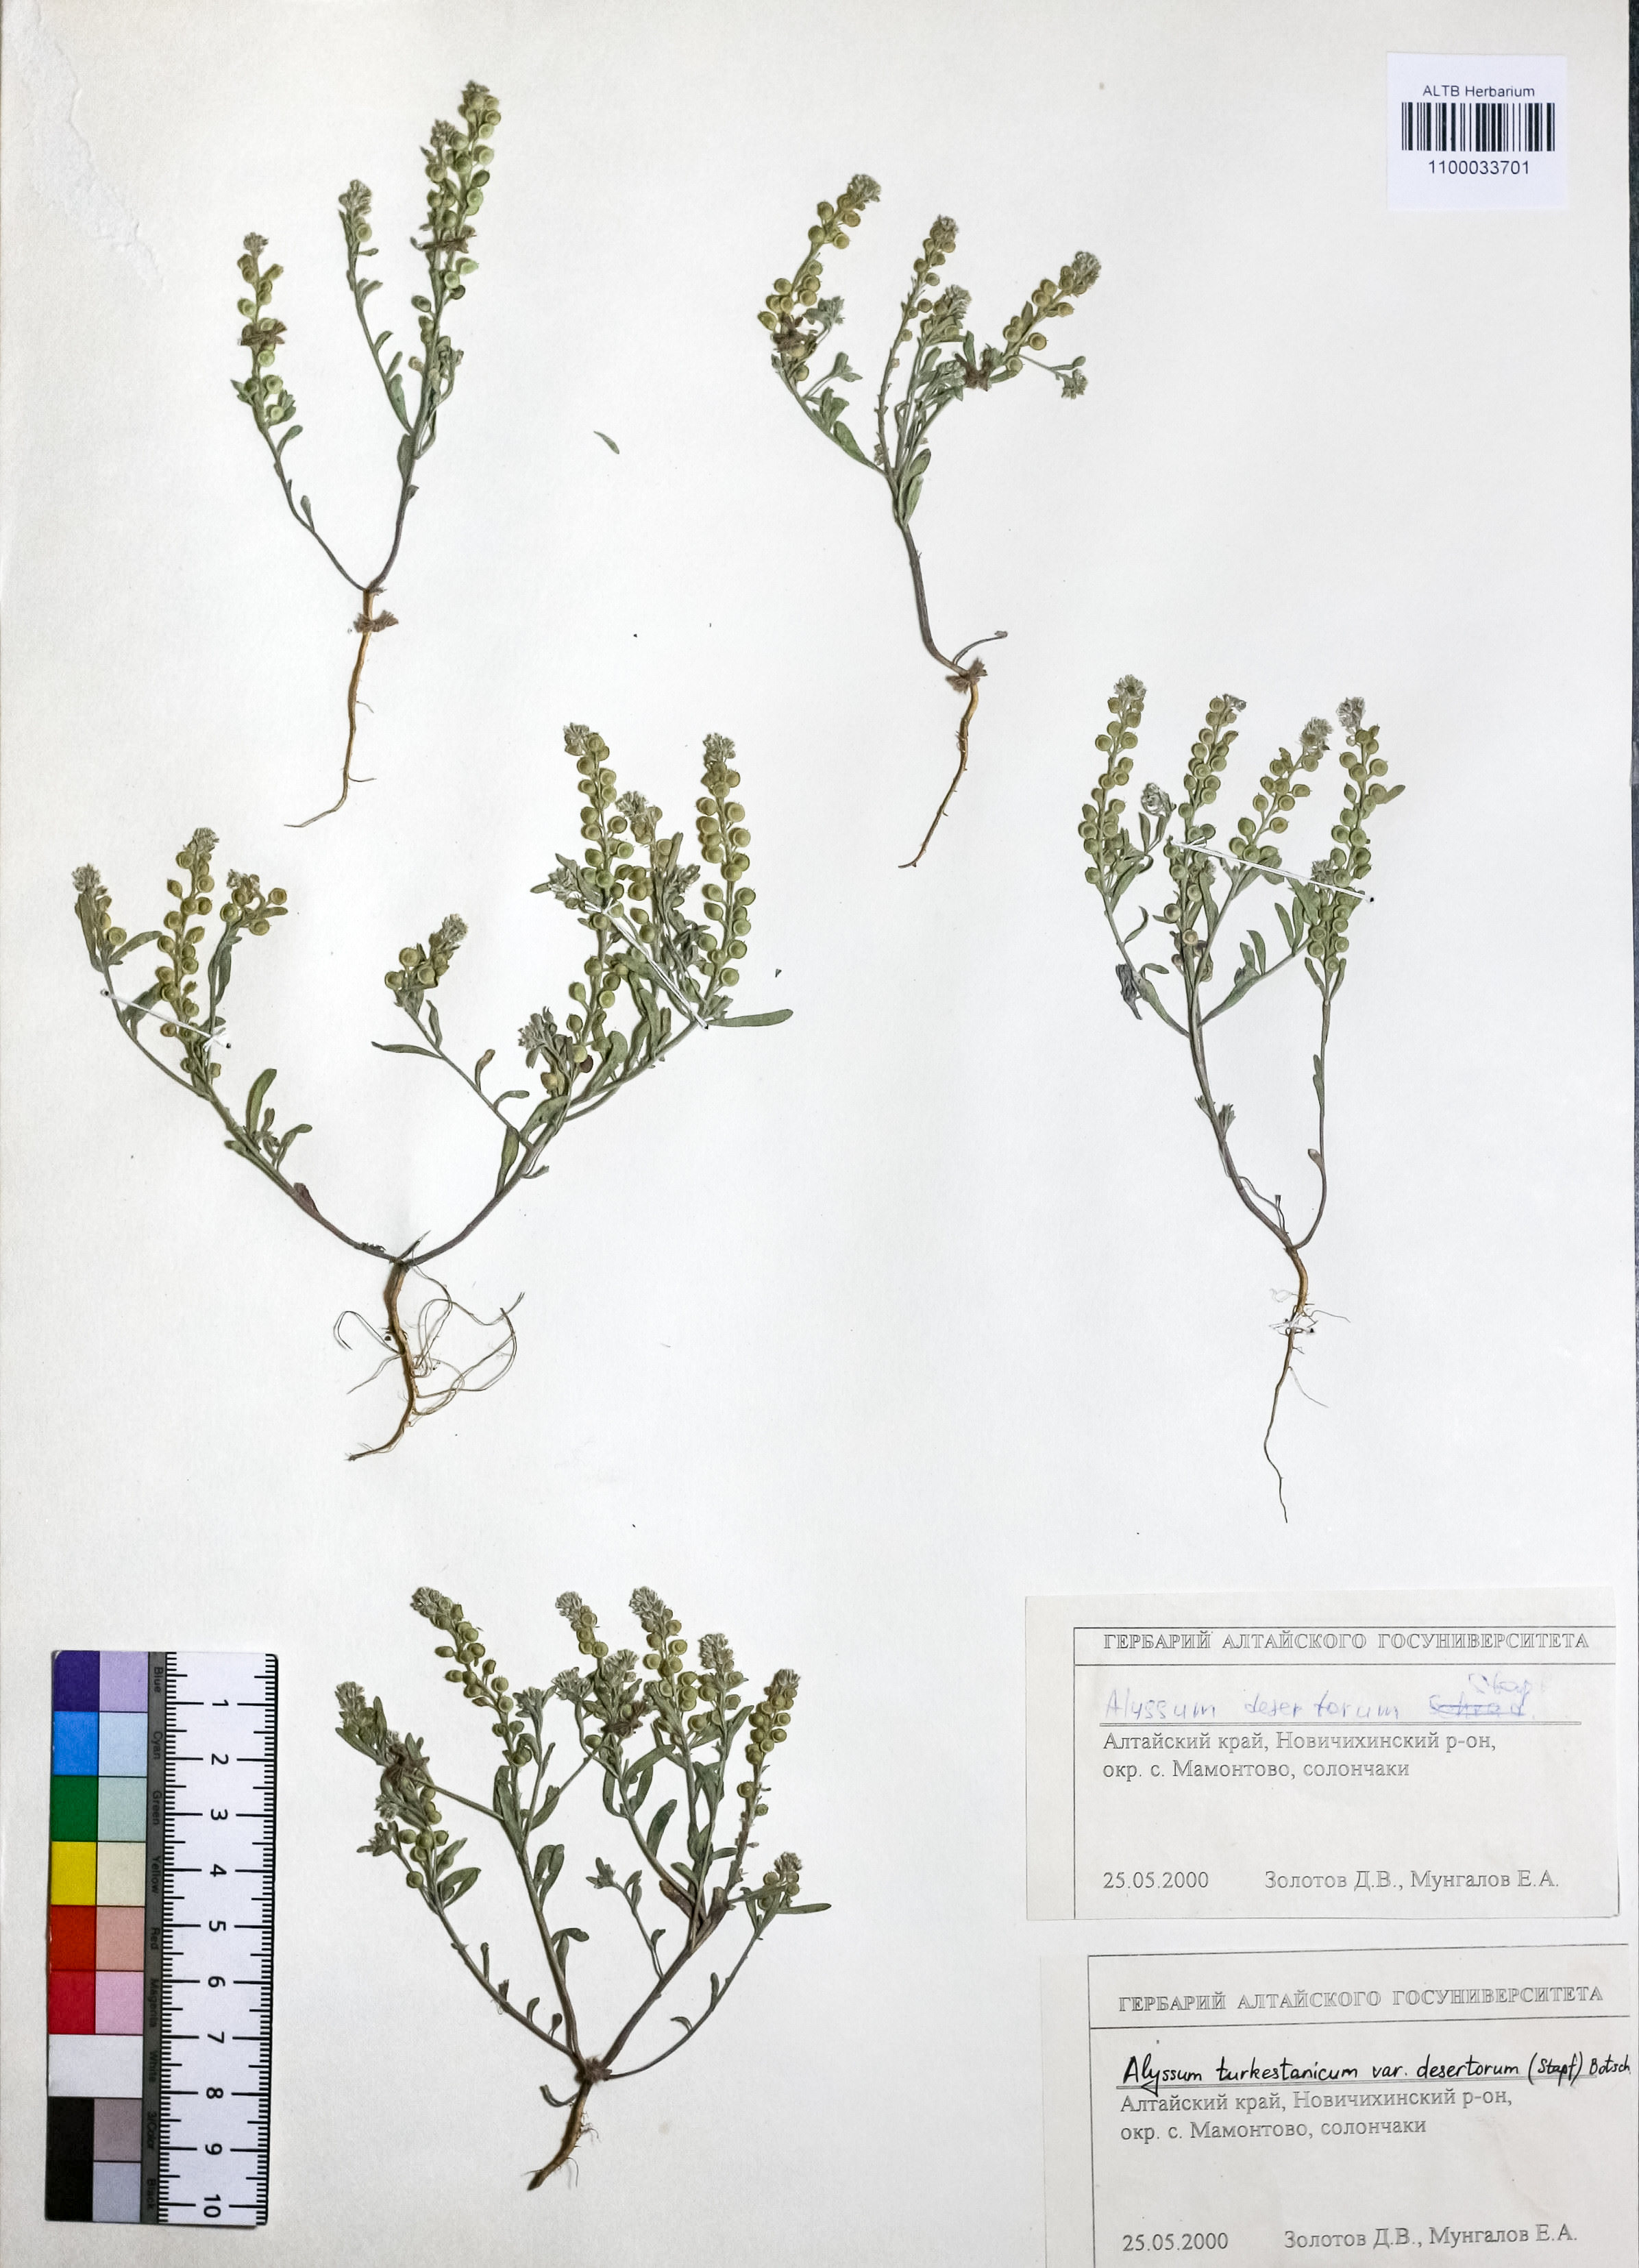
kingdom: Plantae
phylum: Tracheophyta
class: Magnoliopsida
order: Brassicales
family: Brassicaceae
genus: Alyssum
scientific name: Alyssum turkestanicum
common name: Desert alyssum
